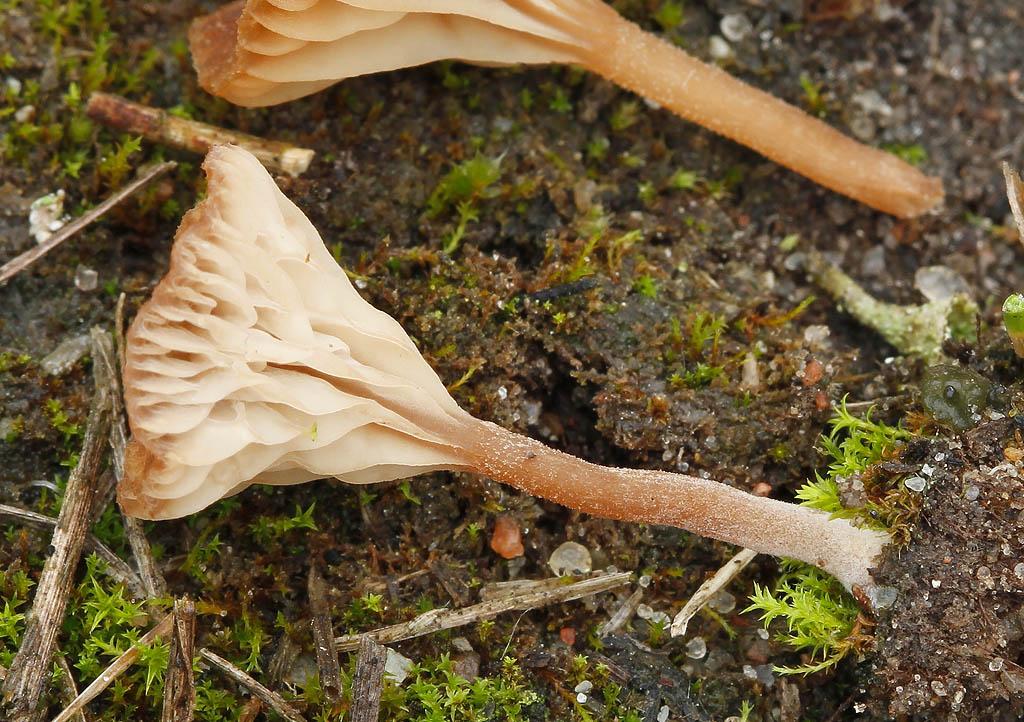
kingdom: Fungi
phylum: Basidiomycota
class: Agaricomycetes
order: Agaricales
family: Tricholomataceae
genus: Omphalina
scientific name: Omphalina pyxidata
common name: rødbrun navlehat
